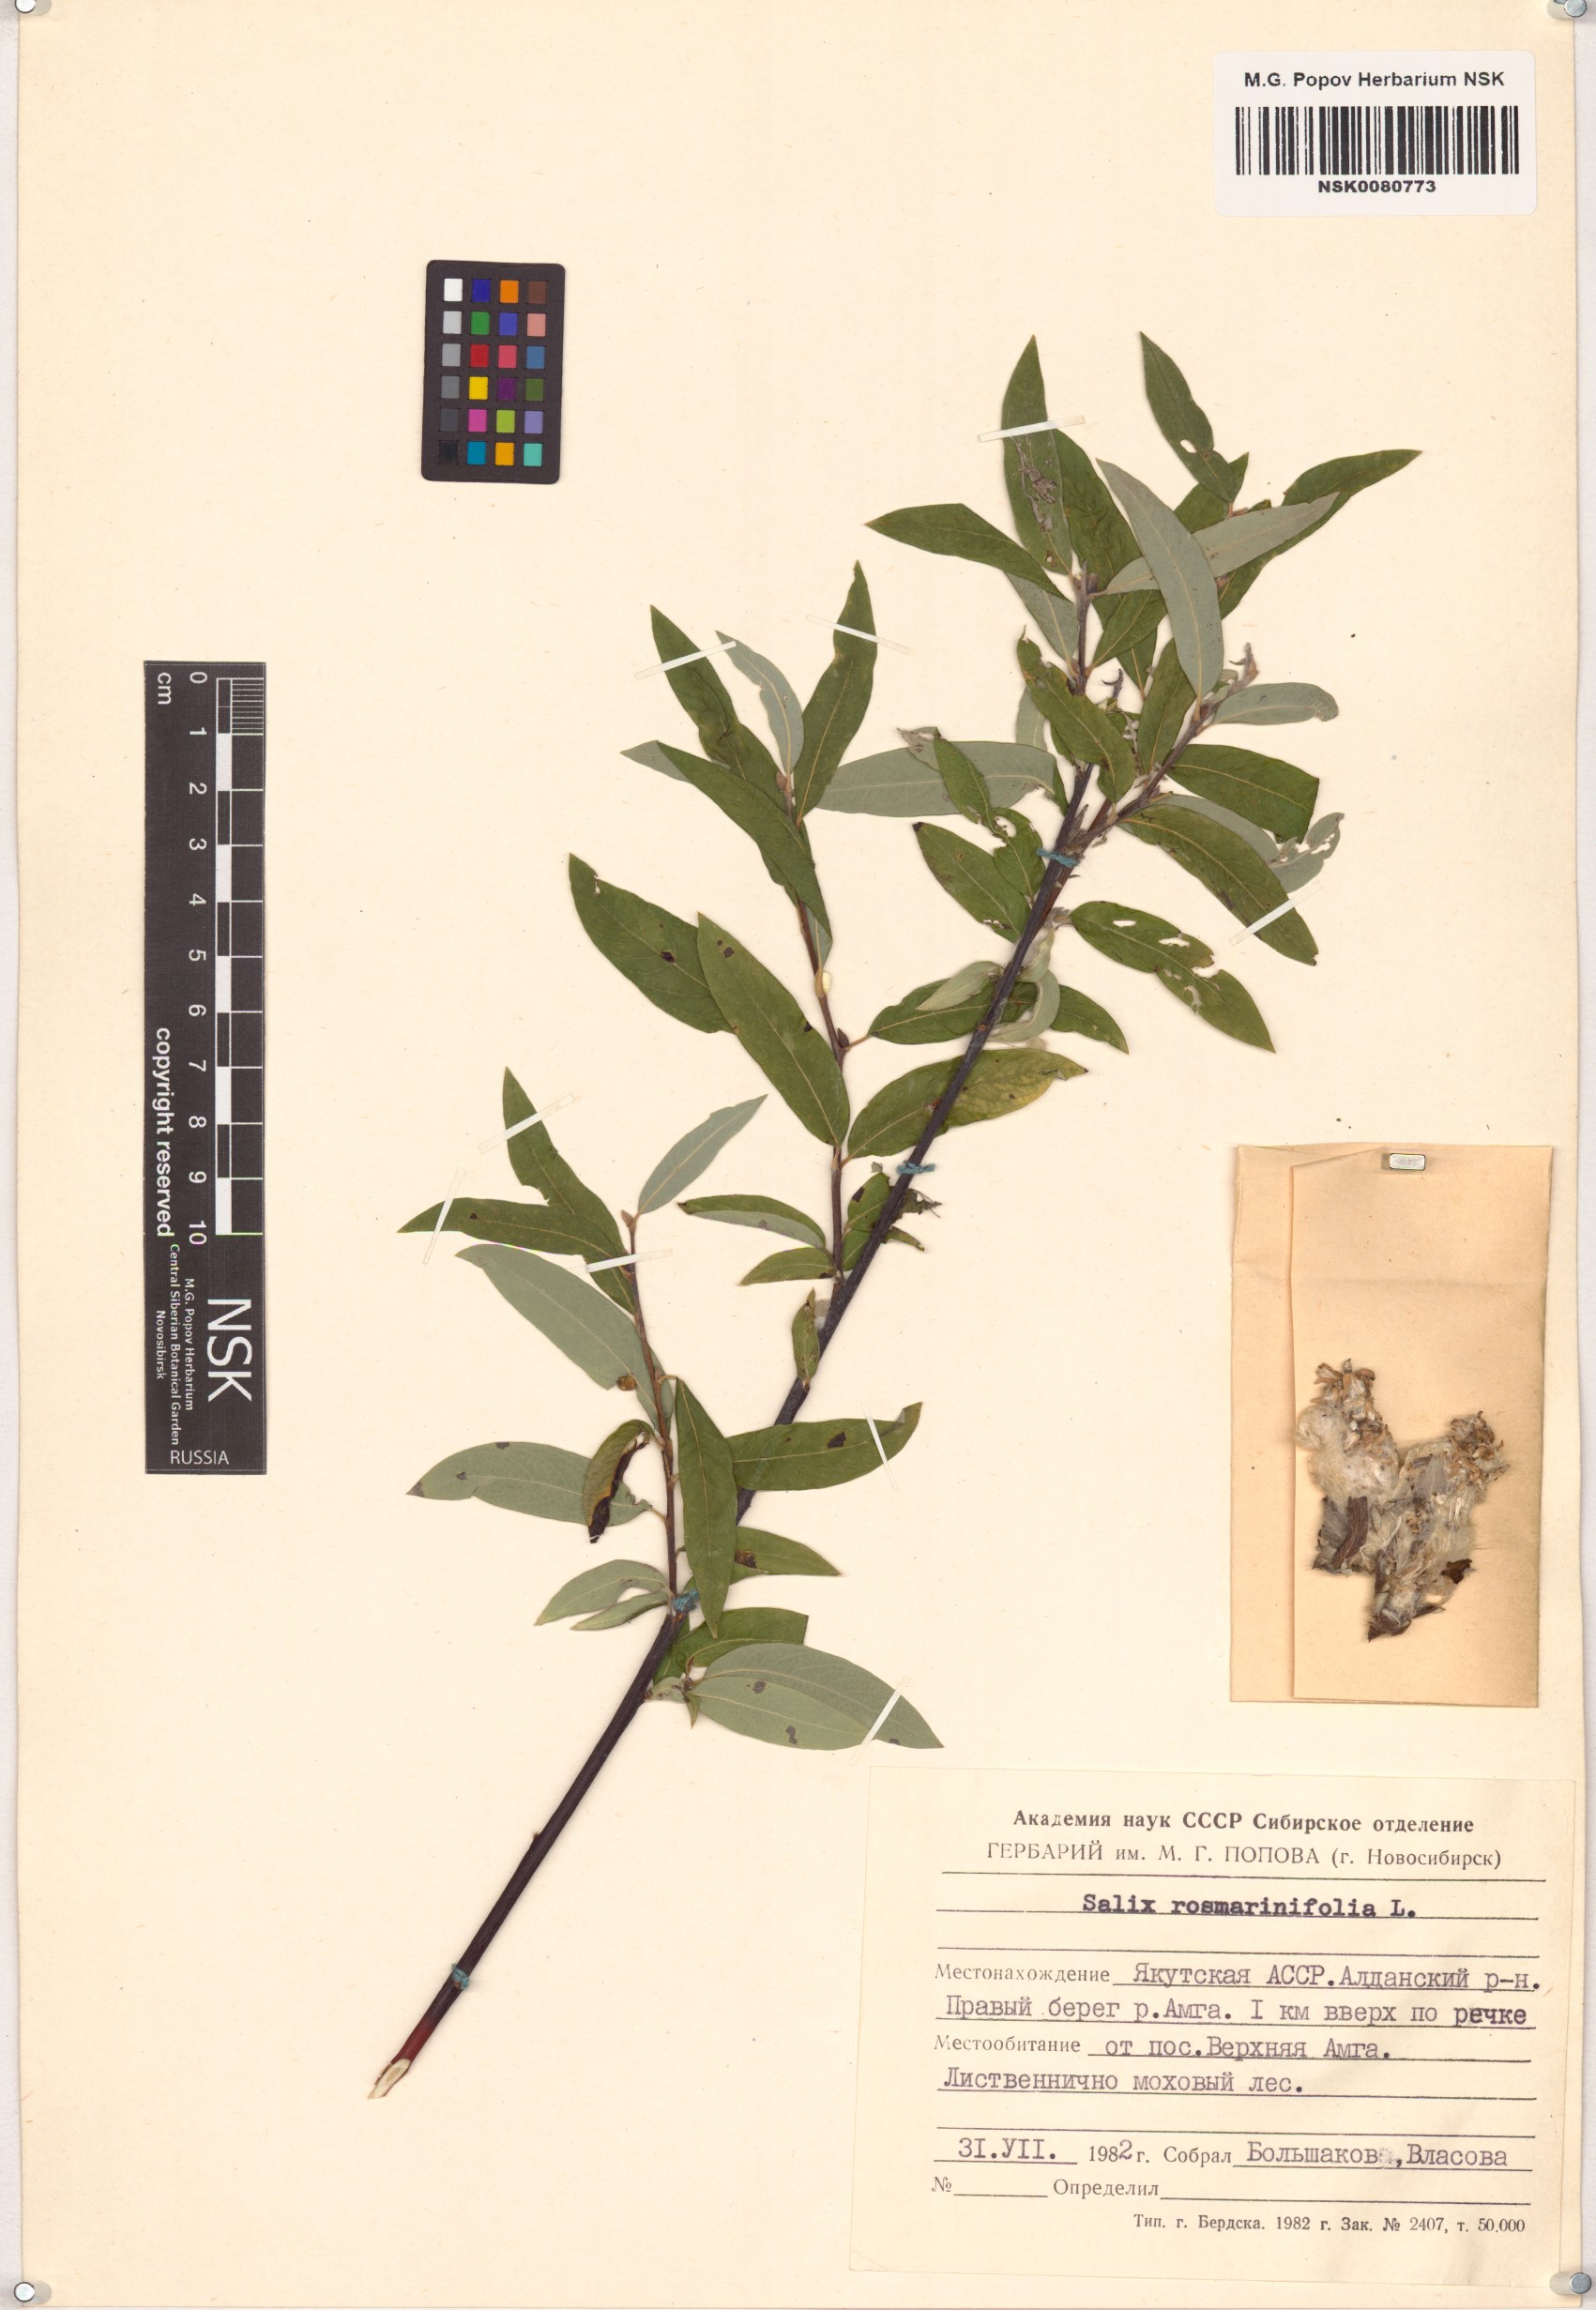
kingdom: Plantae
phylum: Tracheophyta
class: Magnoliopsida
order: Malpighiales
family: Salicaceae
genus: Salix
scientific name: Salix rosmarinifolia
